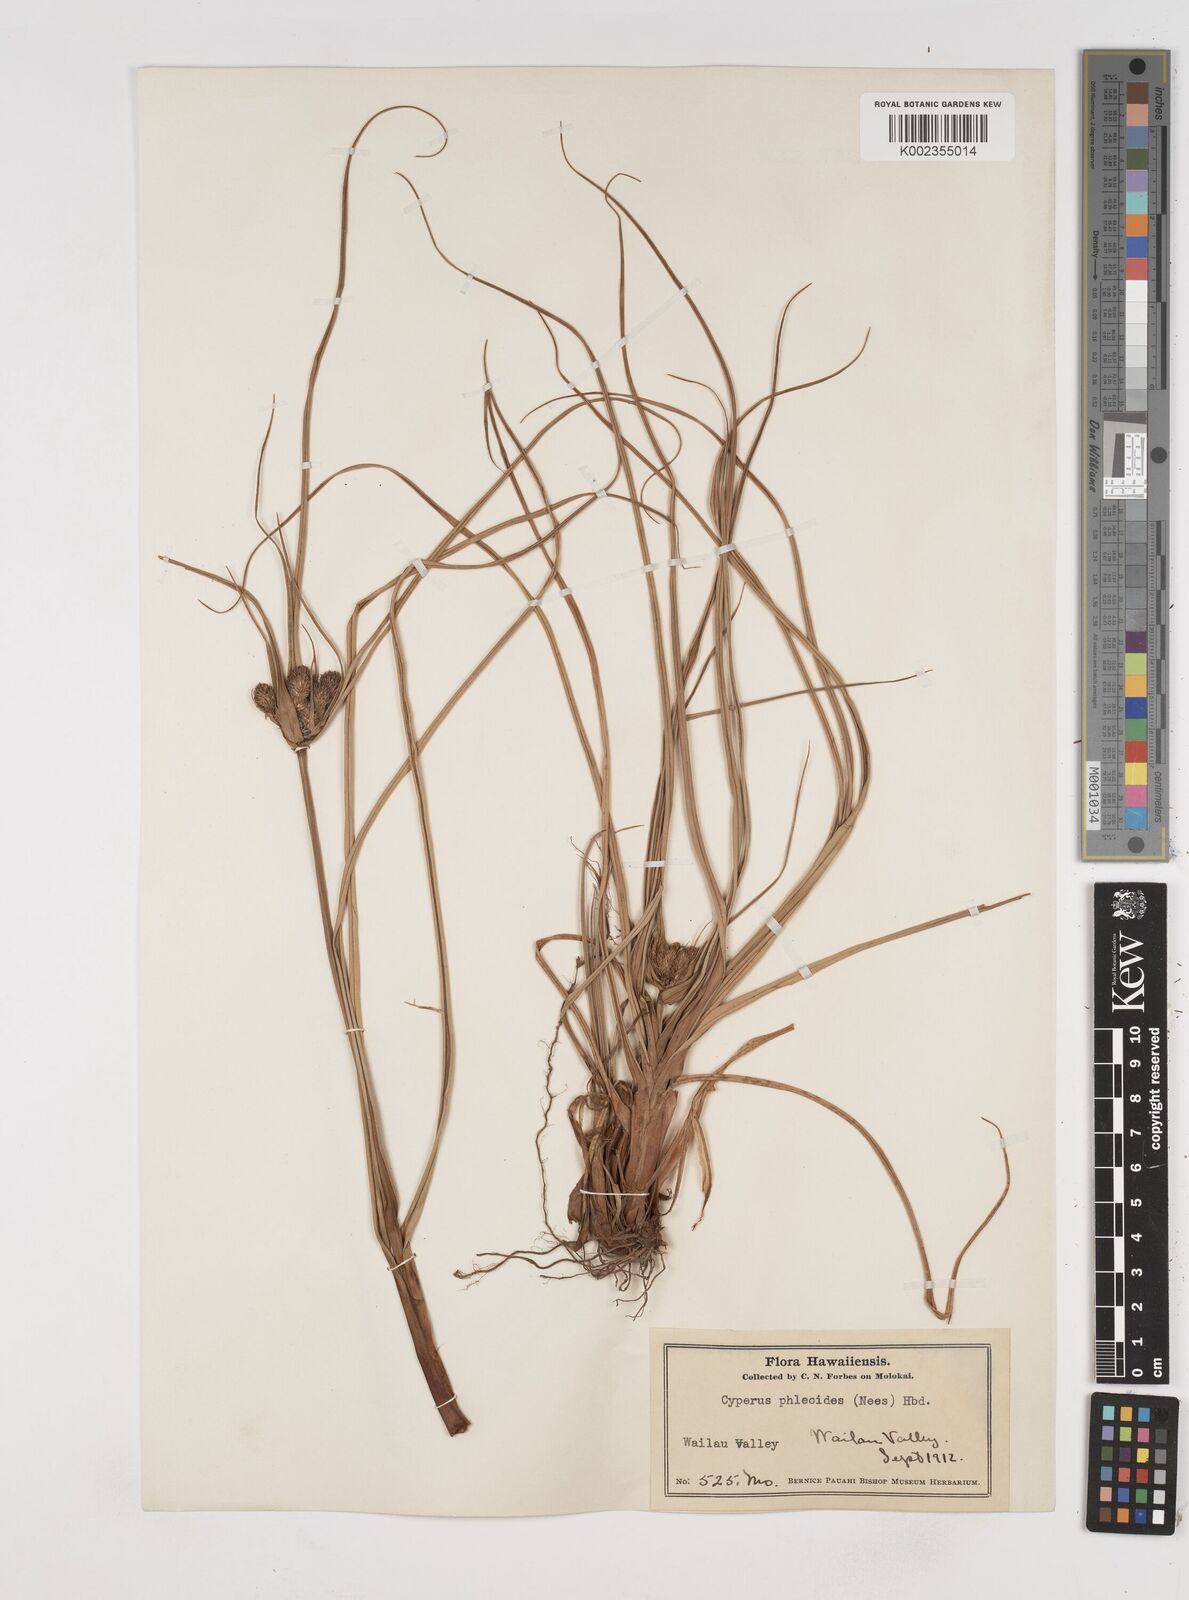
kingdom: Plantae
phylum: Tracheophyta
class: Liliopsida
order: Poales
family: Cyperaceae
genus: Cyperus
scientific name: Cyperus phleoides
